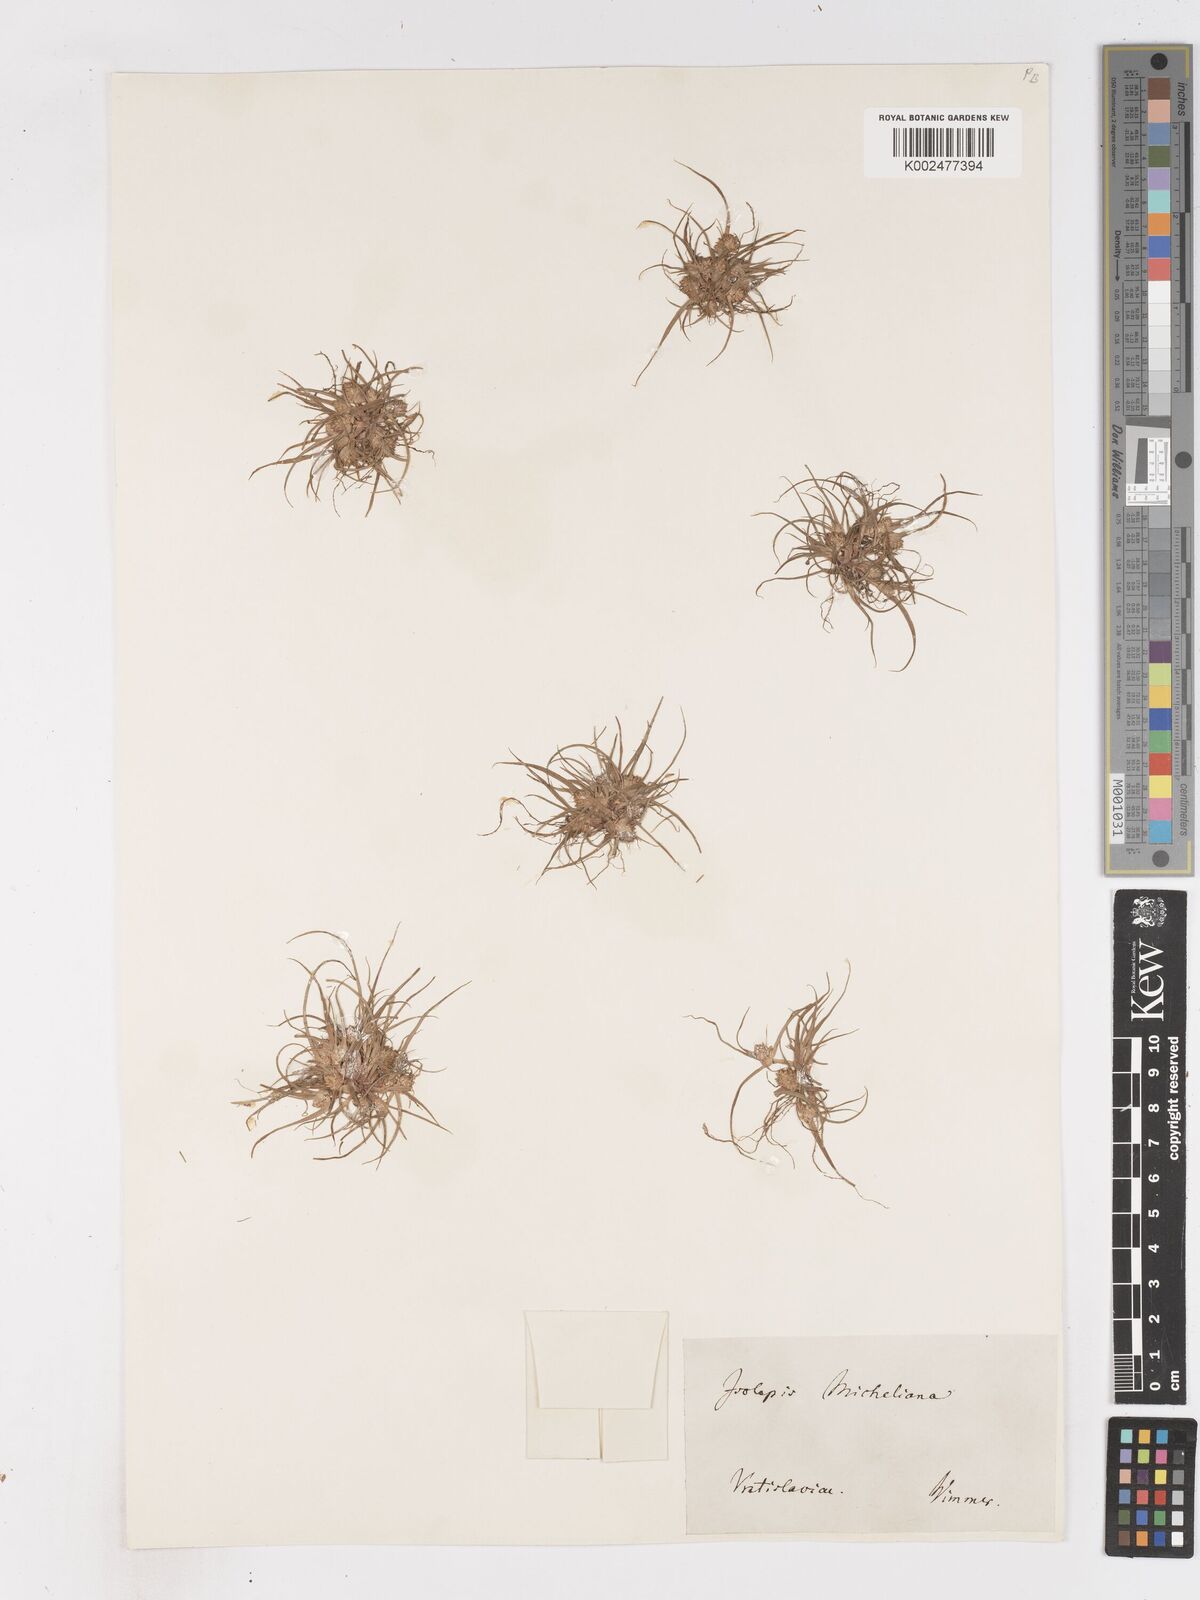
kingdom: Plantae
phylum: Tracheophyta
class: Liliopsida
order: Poales
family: Cyperaceae
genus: Cyperus
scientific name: Cyperus michelianus
